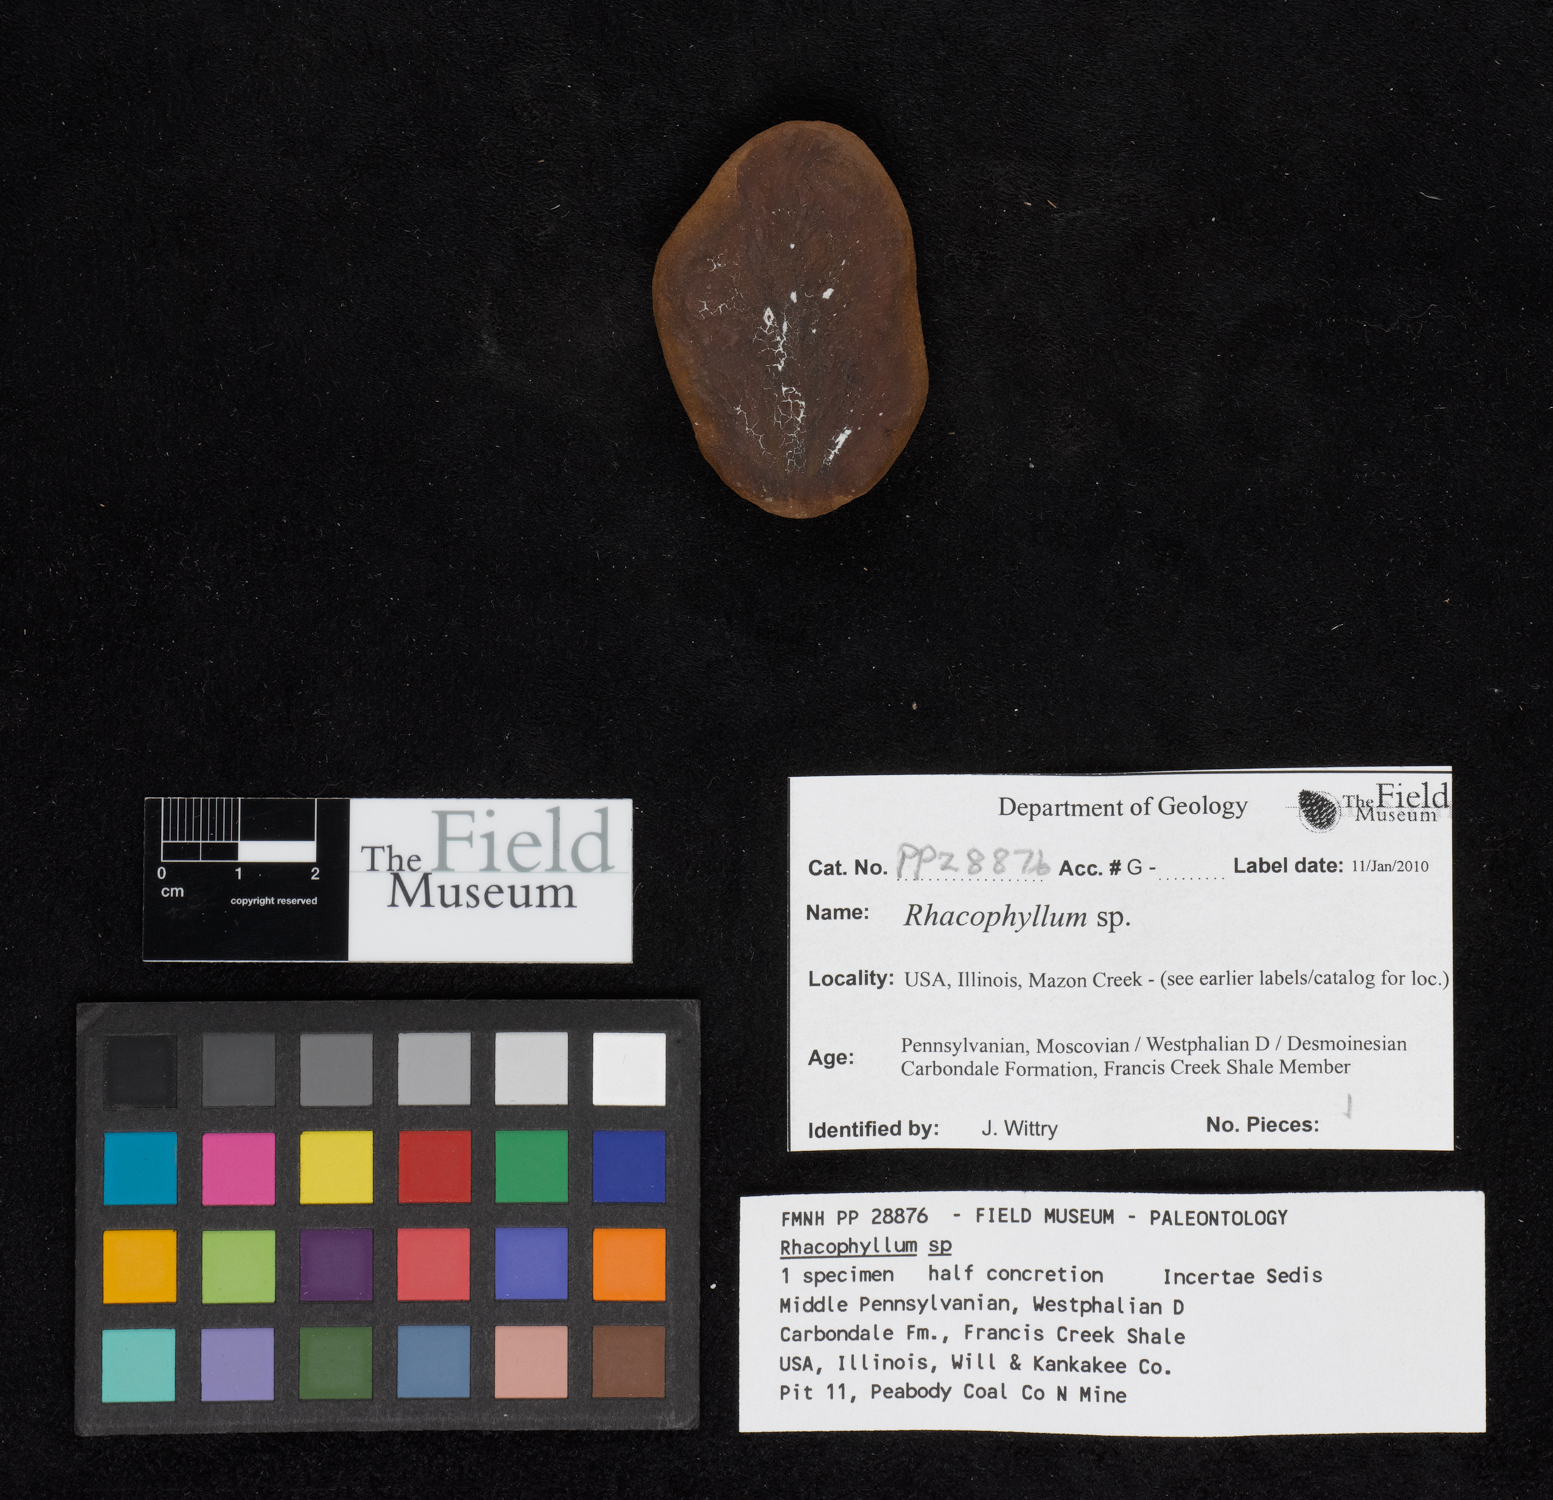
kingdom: Plantae
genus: Rhacophyllum
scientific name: Rhacophyllum
